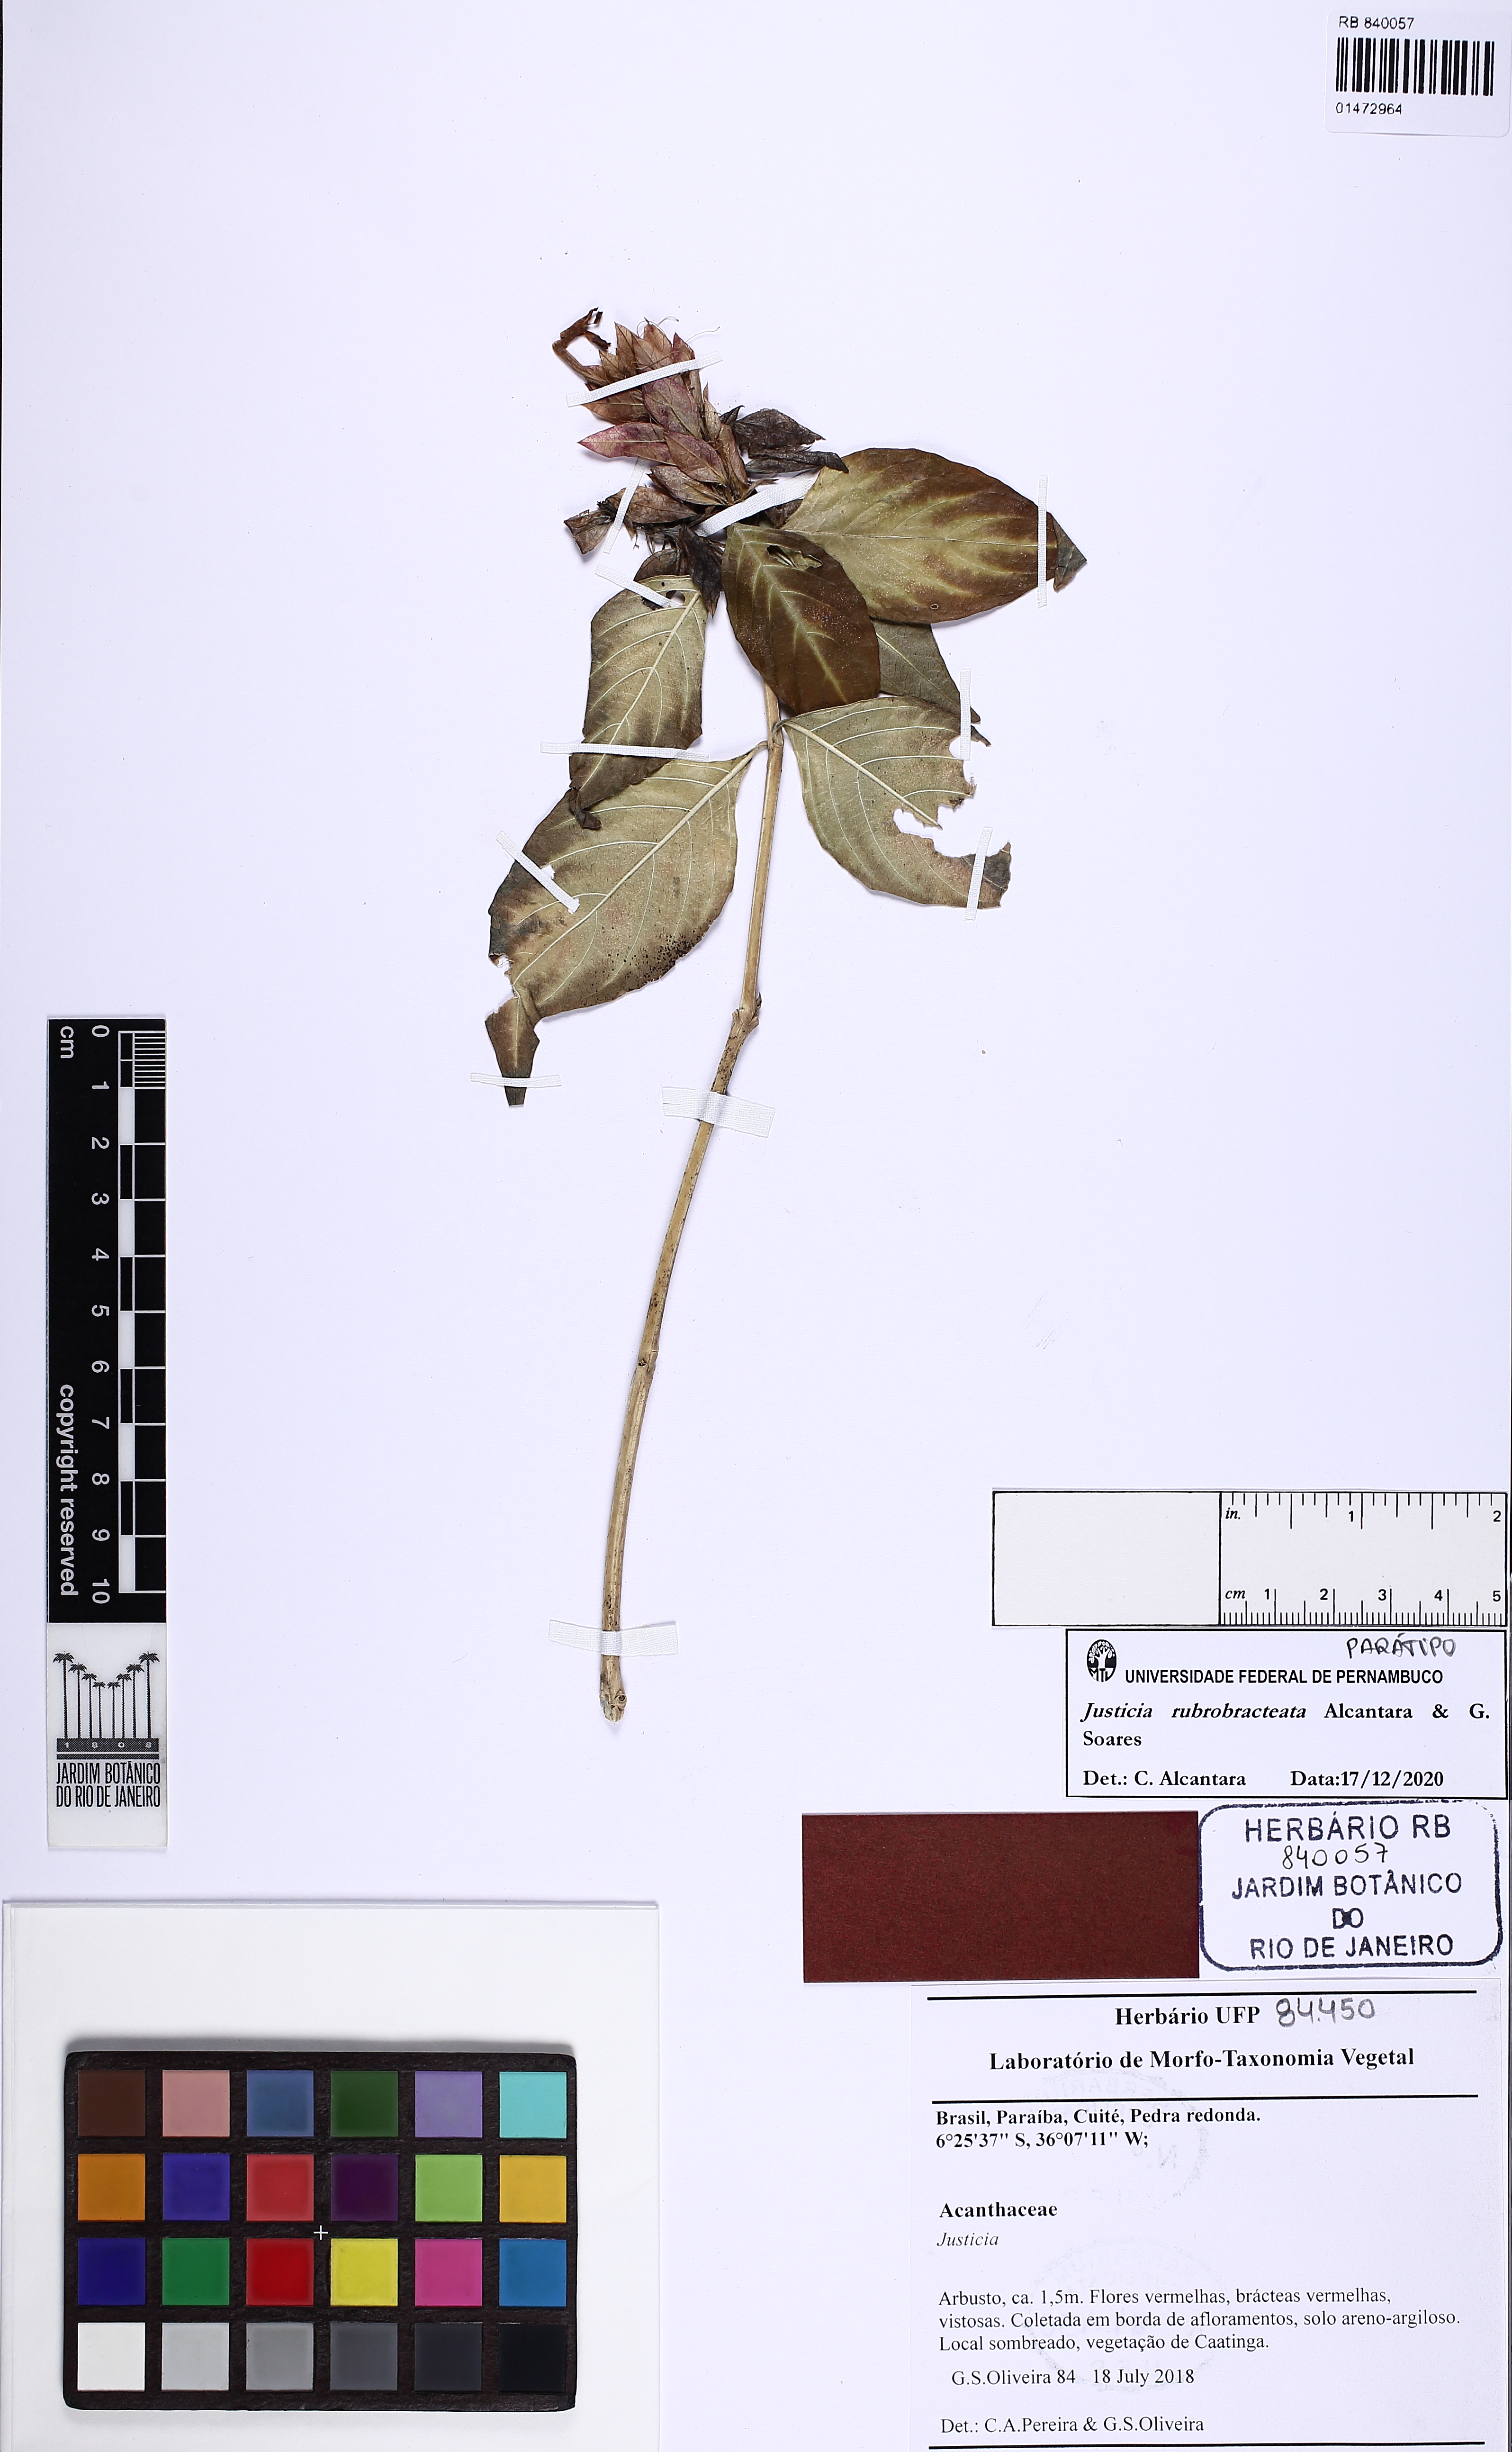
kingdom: Plantae
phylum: Tracheophyta
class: Magnoliopsida
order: Lamiales
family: Acanthaceae
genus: Justicia
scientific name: Justicia rubrobracteata
